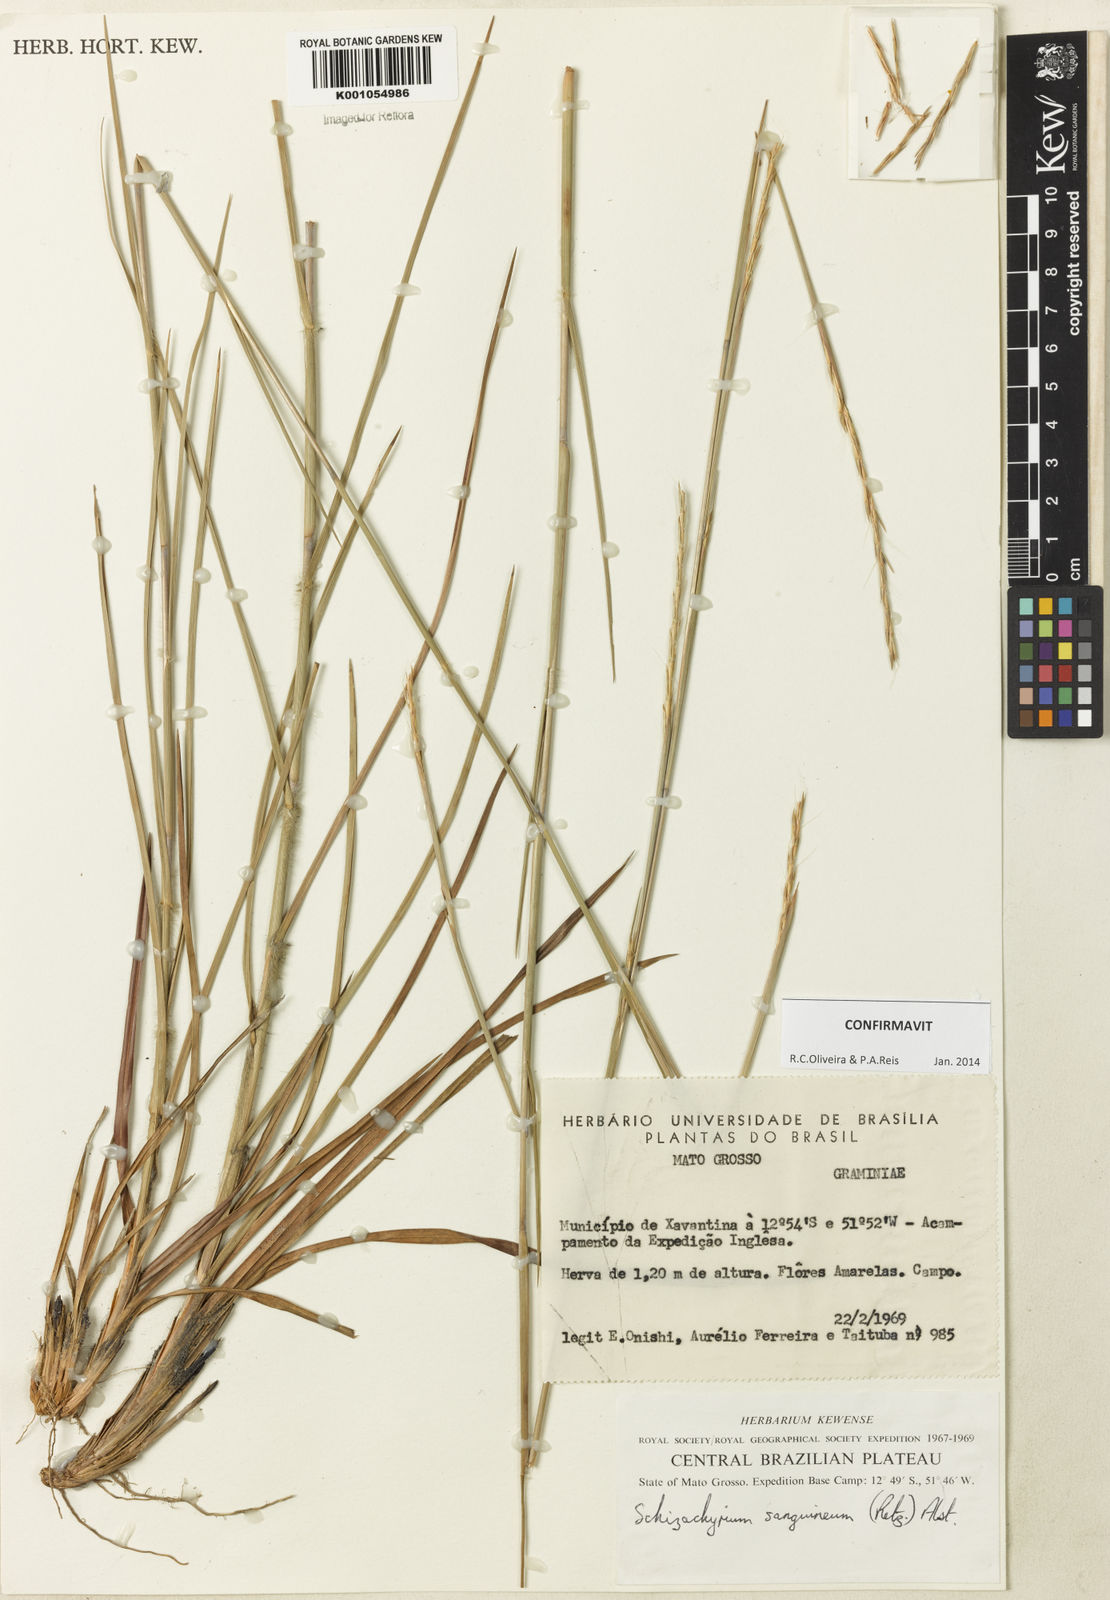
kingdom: Plantae
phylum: Tracheophyta
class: Liliopsida
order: Poales
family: Poaceae
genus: Schizachyrium
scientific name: Schizachyrium sanguineum
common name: Crimson bluestem
